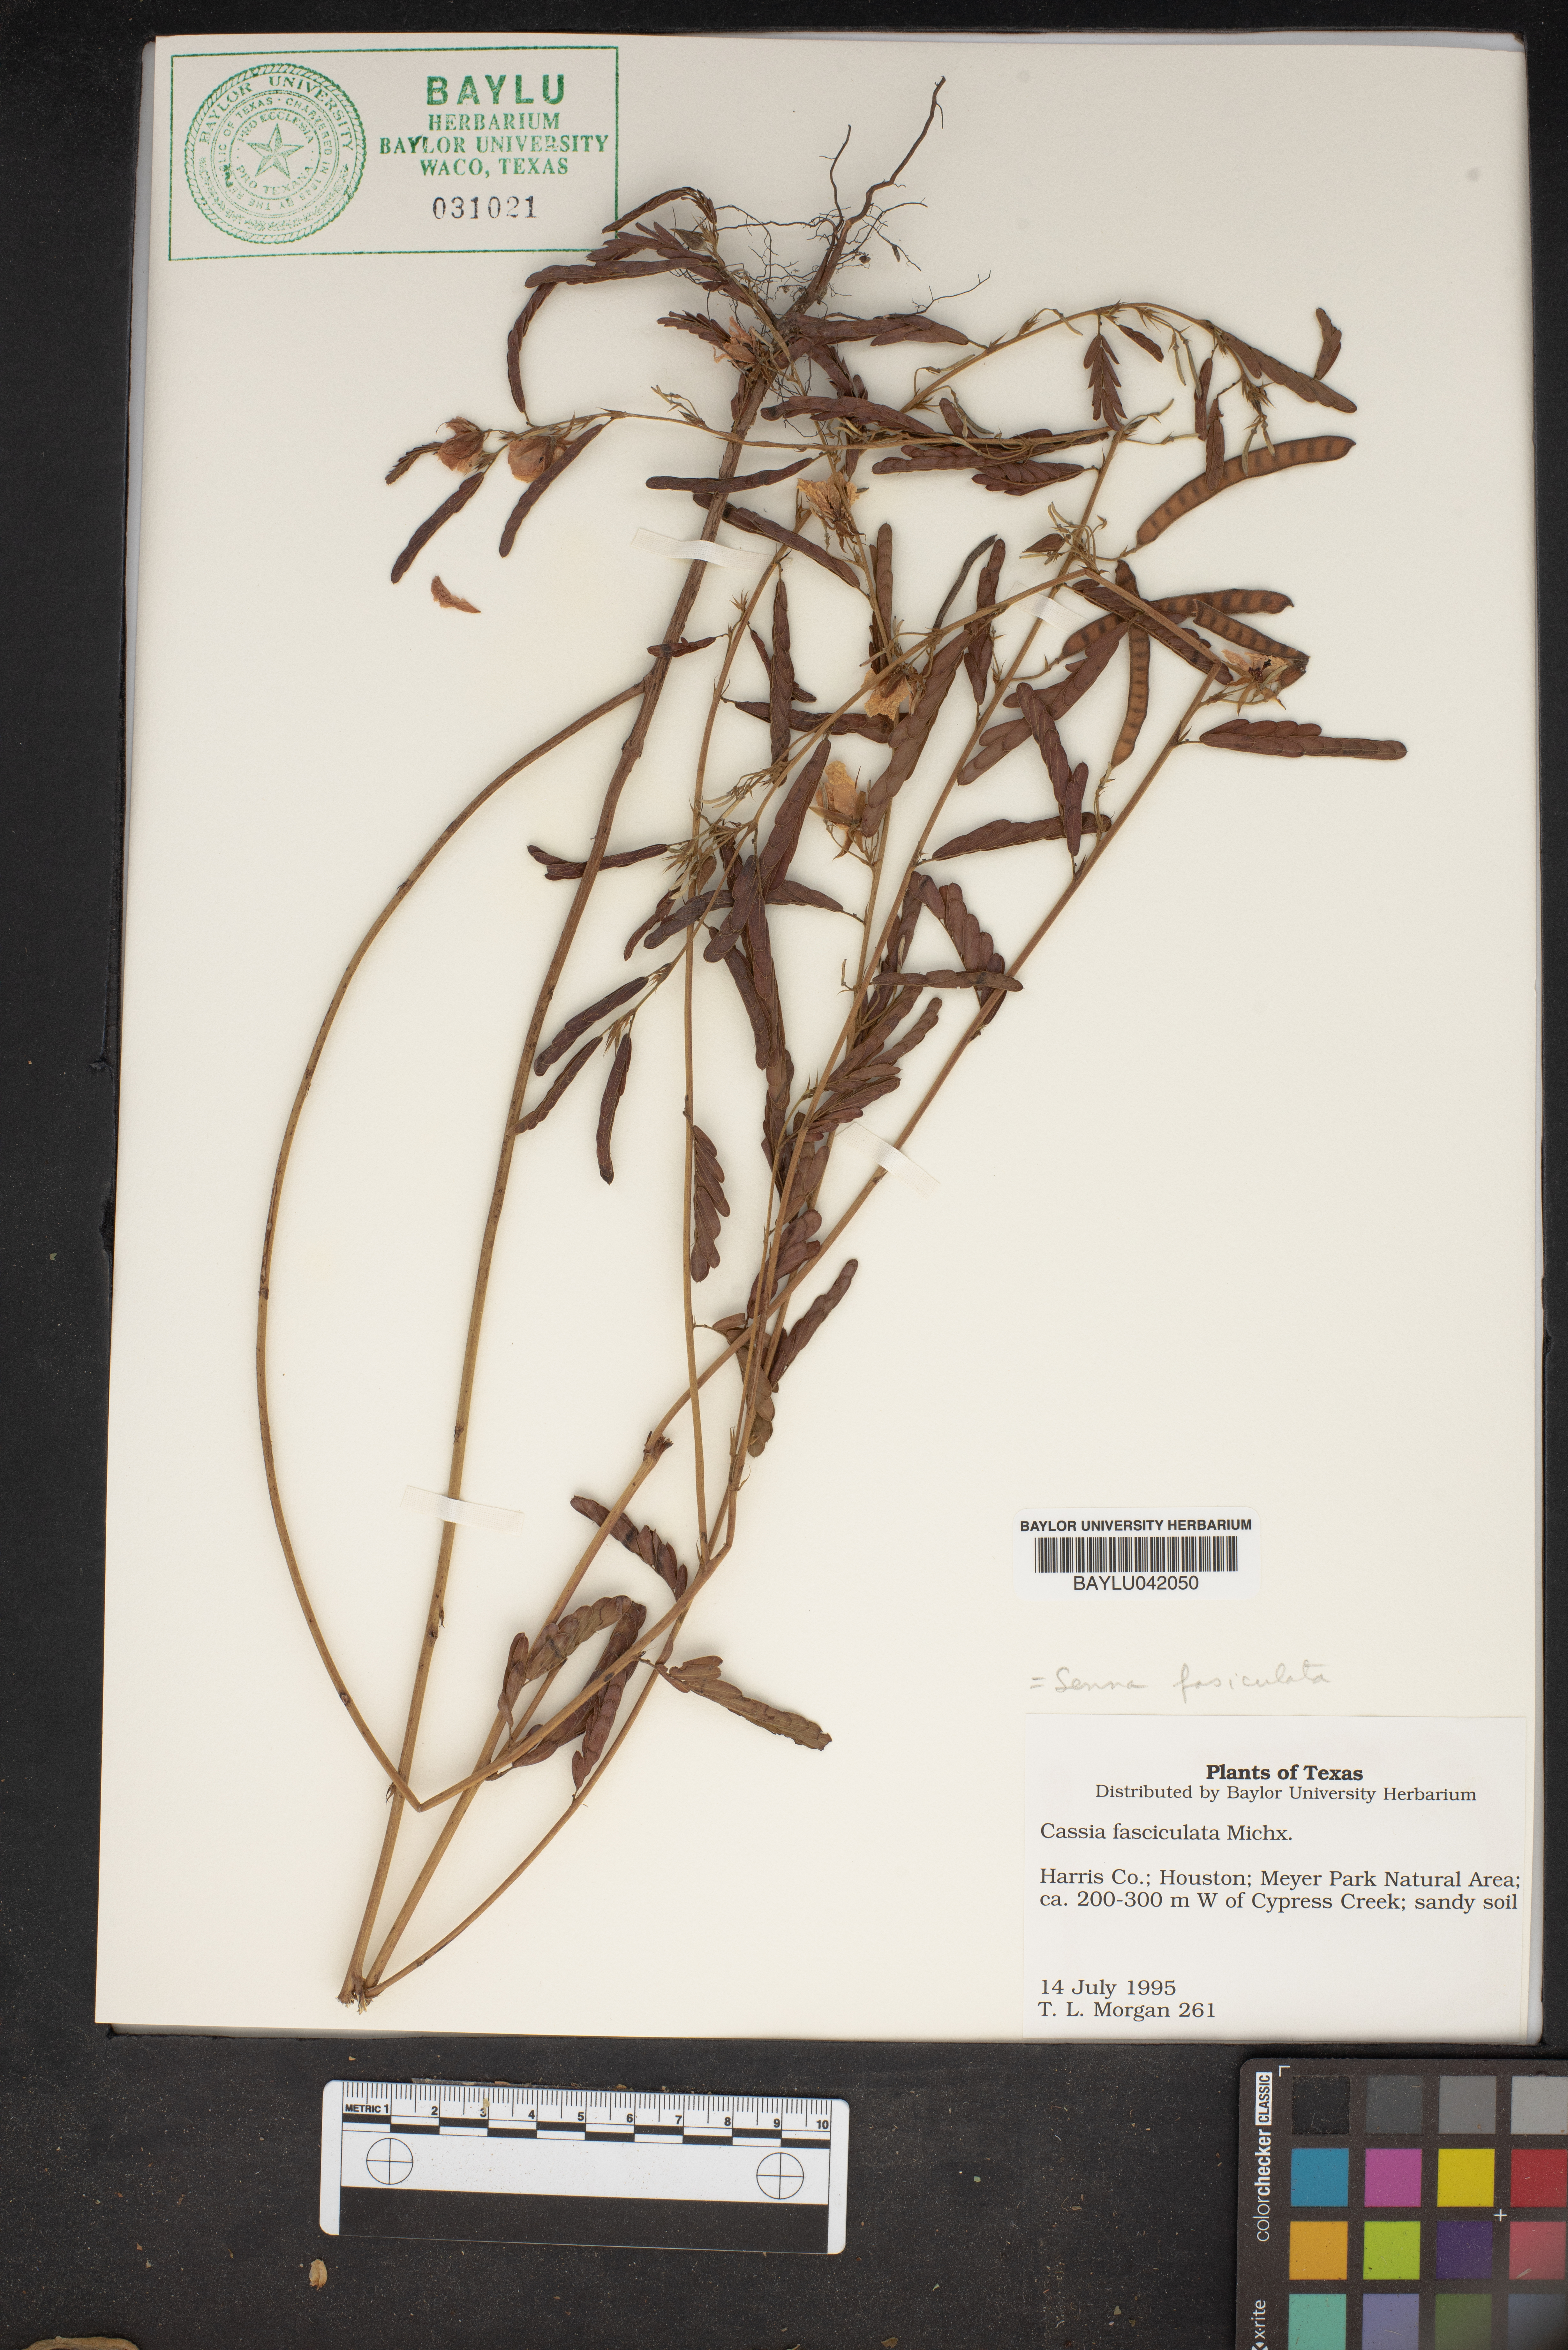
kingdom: Plantae
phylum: Tracheophyta
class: Magnoliopsida
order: Fabales
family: Fabaceae
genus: Chamaecrista
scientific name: Chamaecrista fasciculata
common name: Golden cassia
